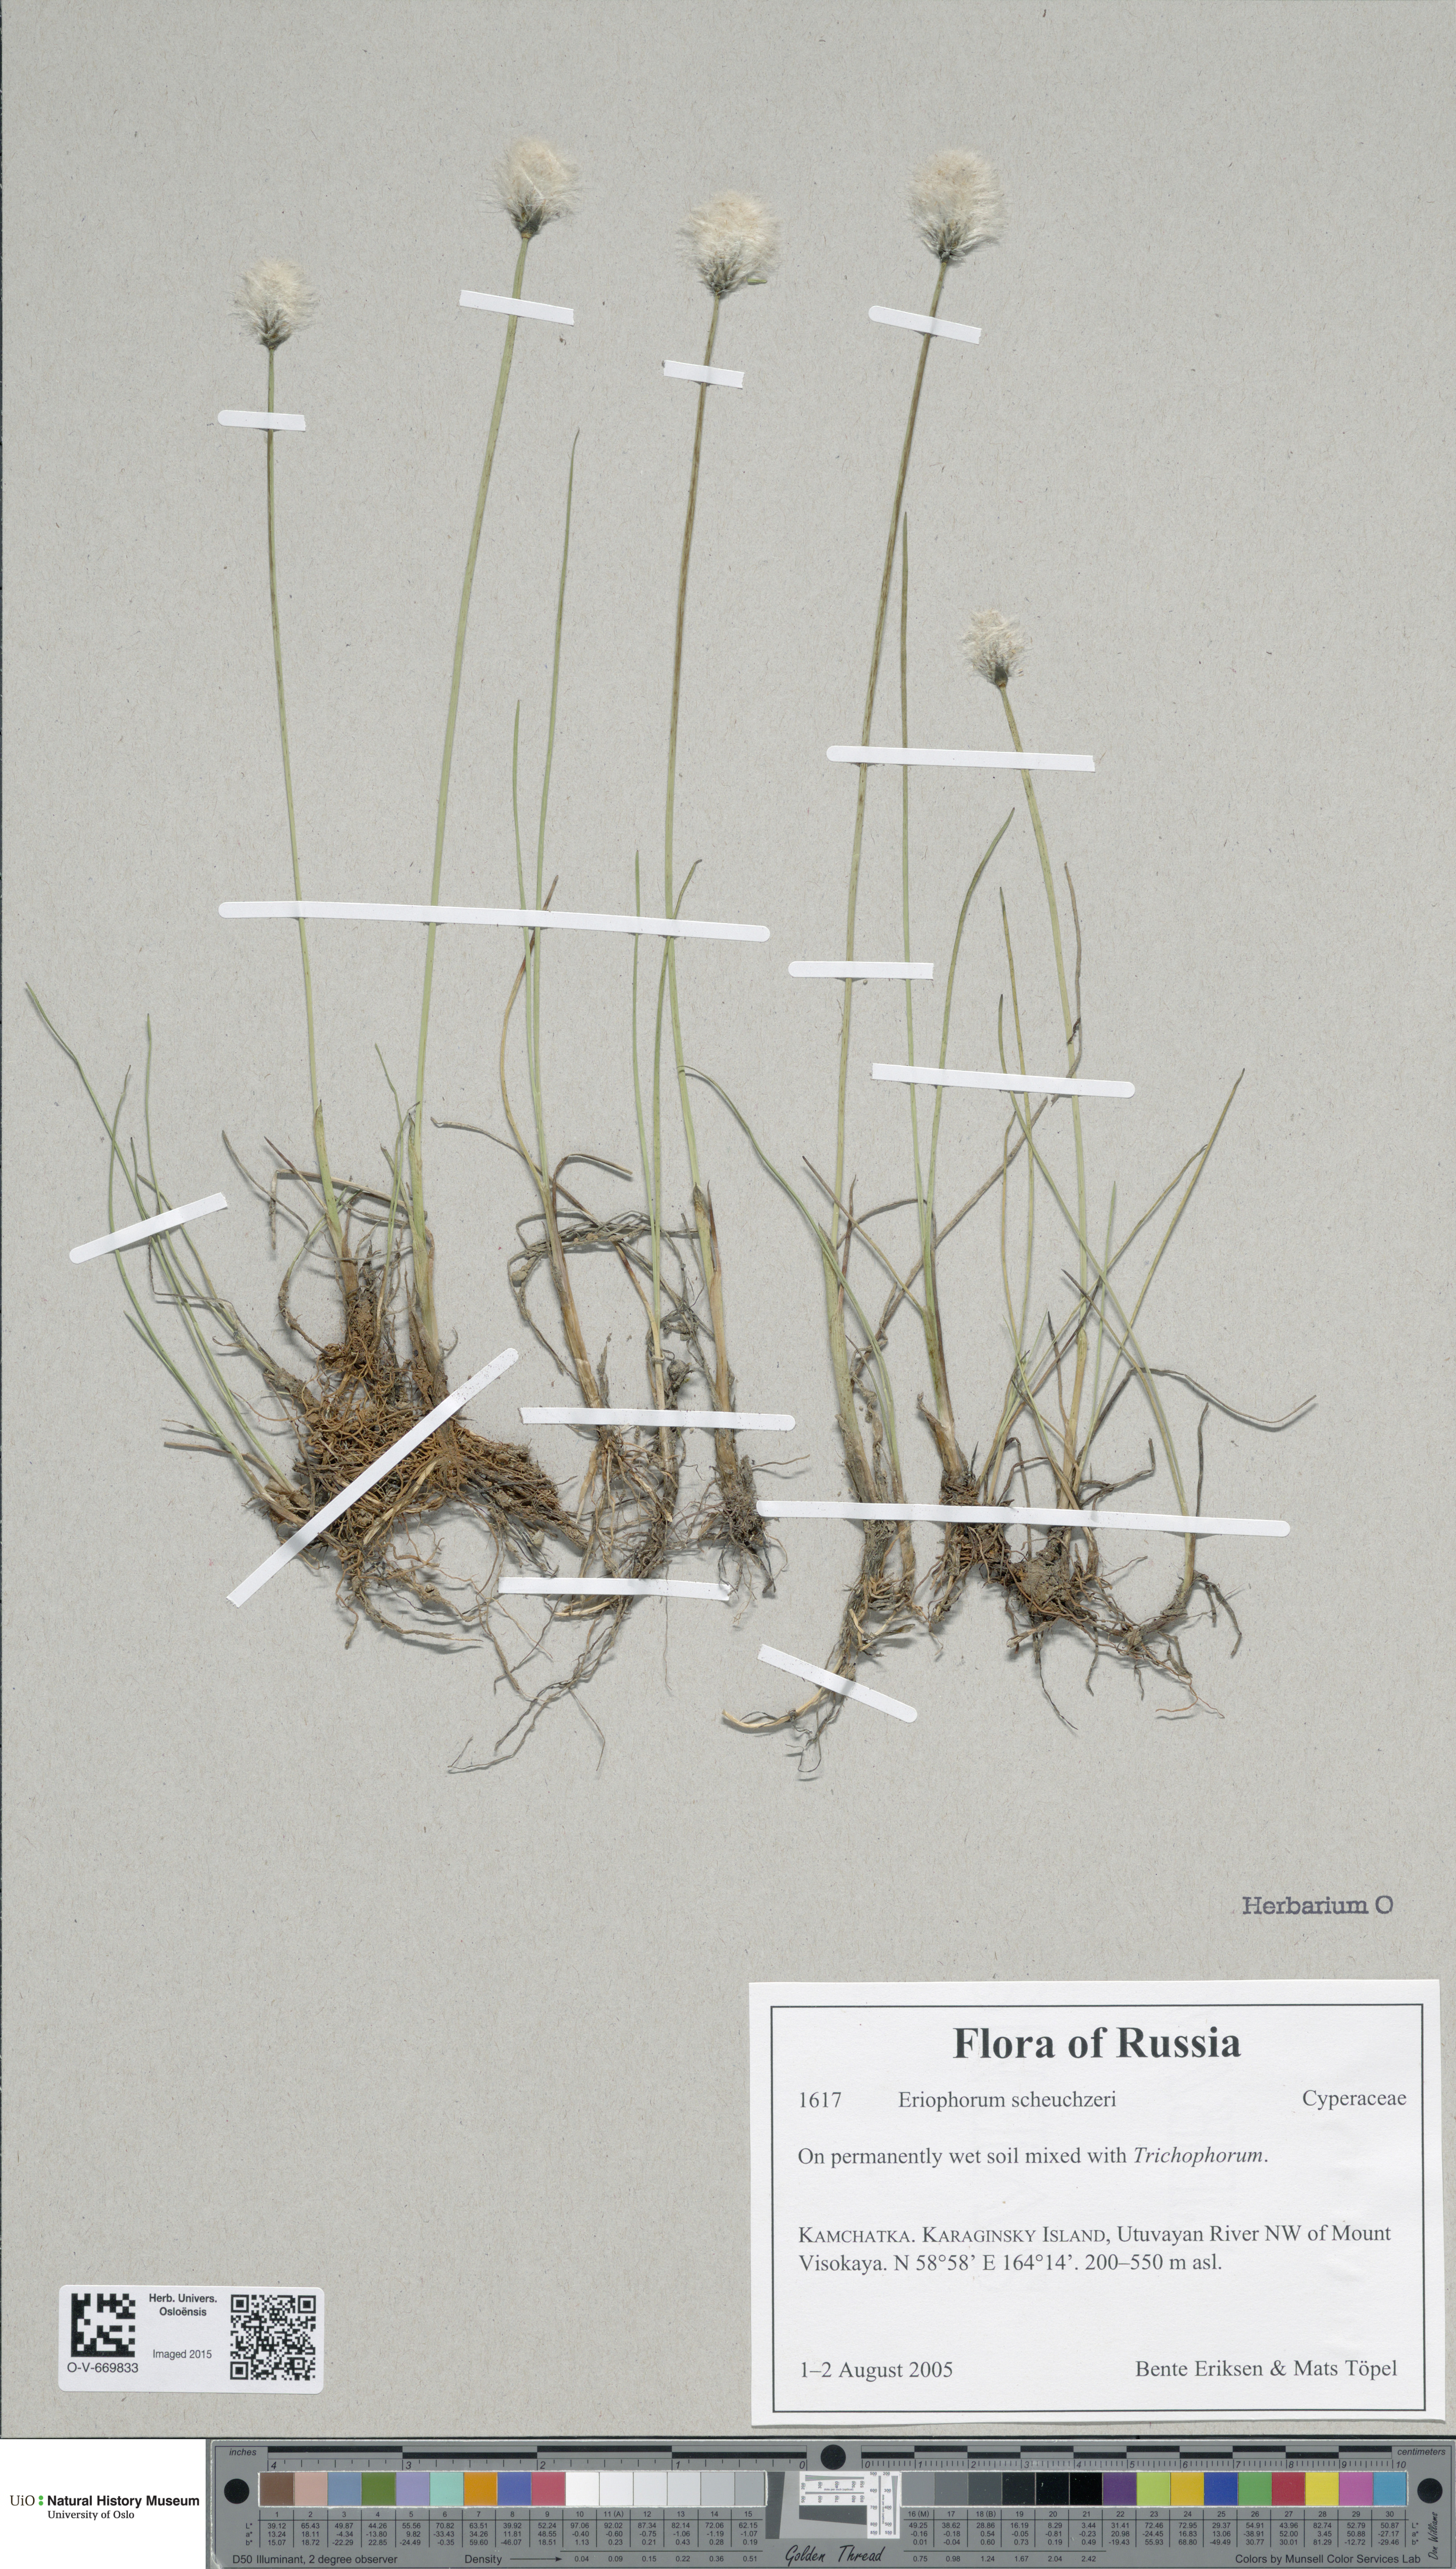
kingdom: Plantae
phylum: Tracheophyta
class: Liliopsida
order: Poales
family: Cyperaceae
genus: Eriophorum
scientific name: Eriophorum scheuchzeri
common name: Scheuchzer's cottongrass
